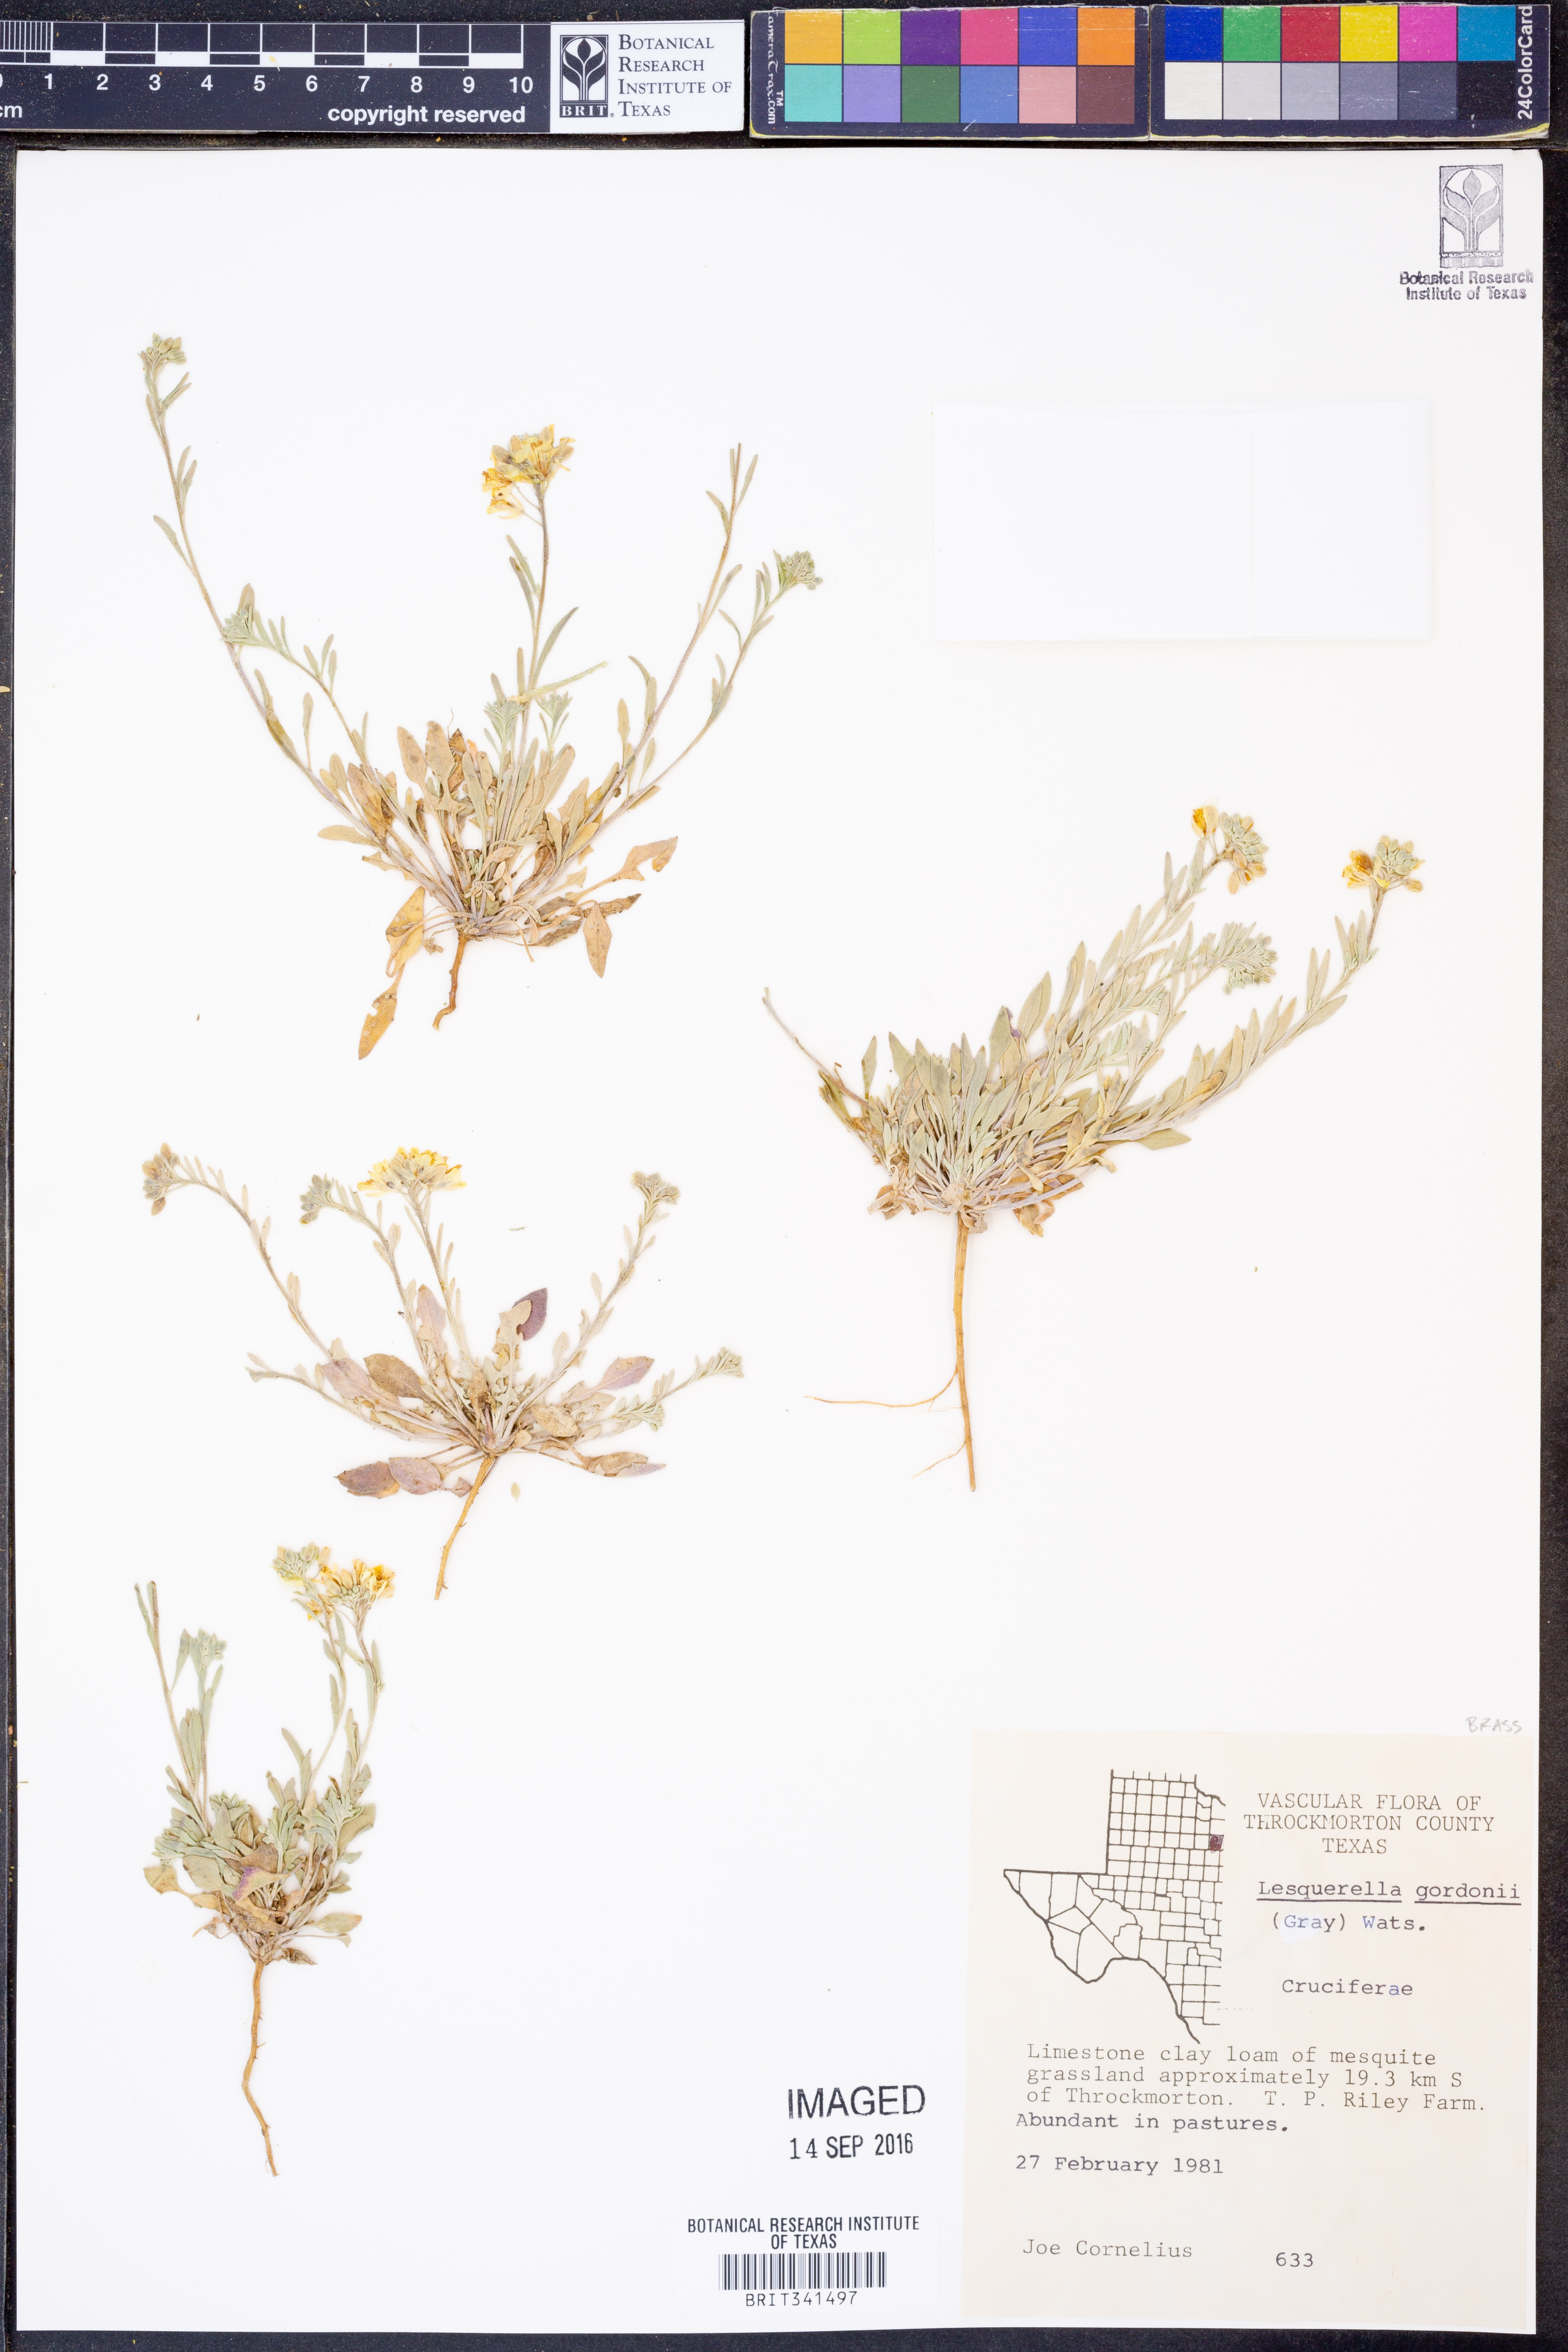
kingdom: Plantae
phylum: Tracheophyta
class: Magnoliopsida
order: Brassicales
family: Brassicaceae
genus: Physaria
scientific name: Physaria gordonii
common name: Gordon's bladderpod
